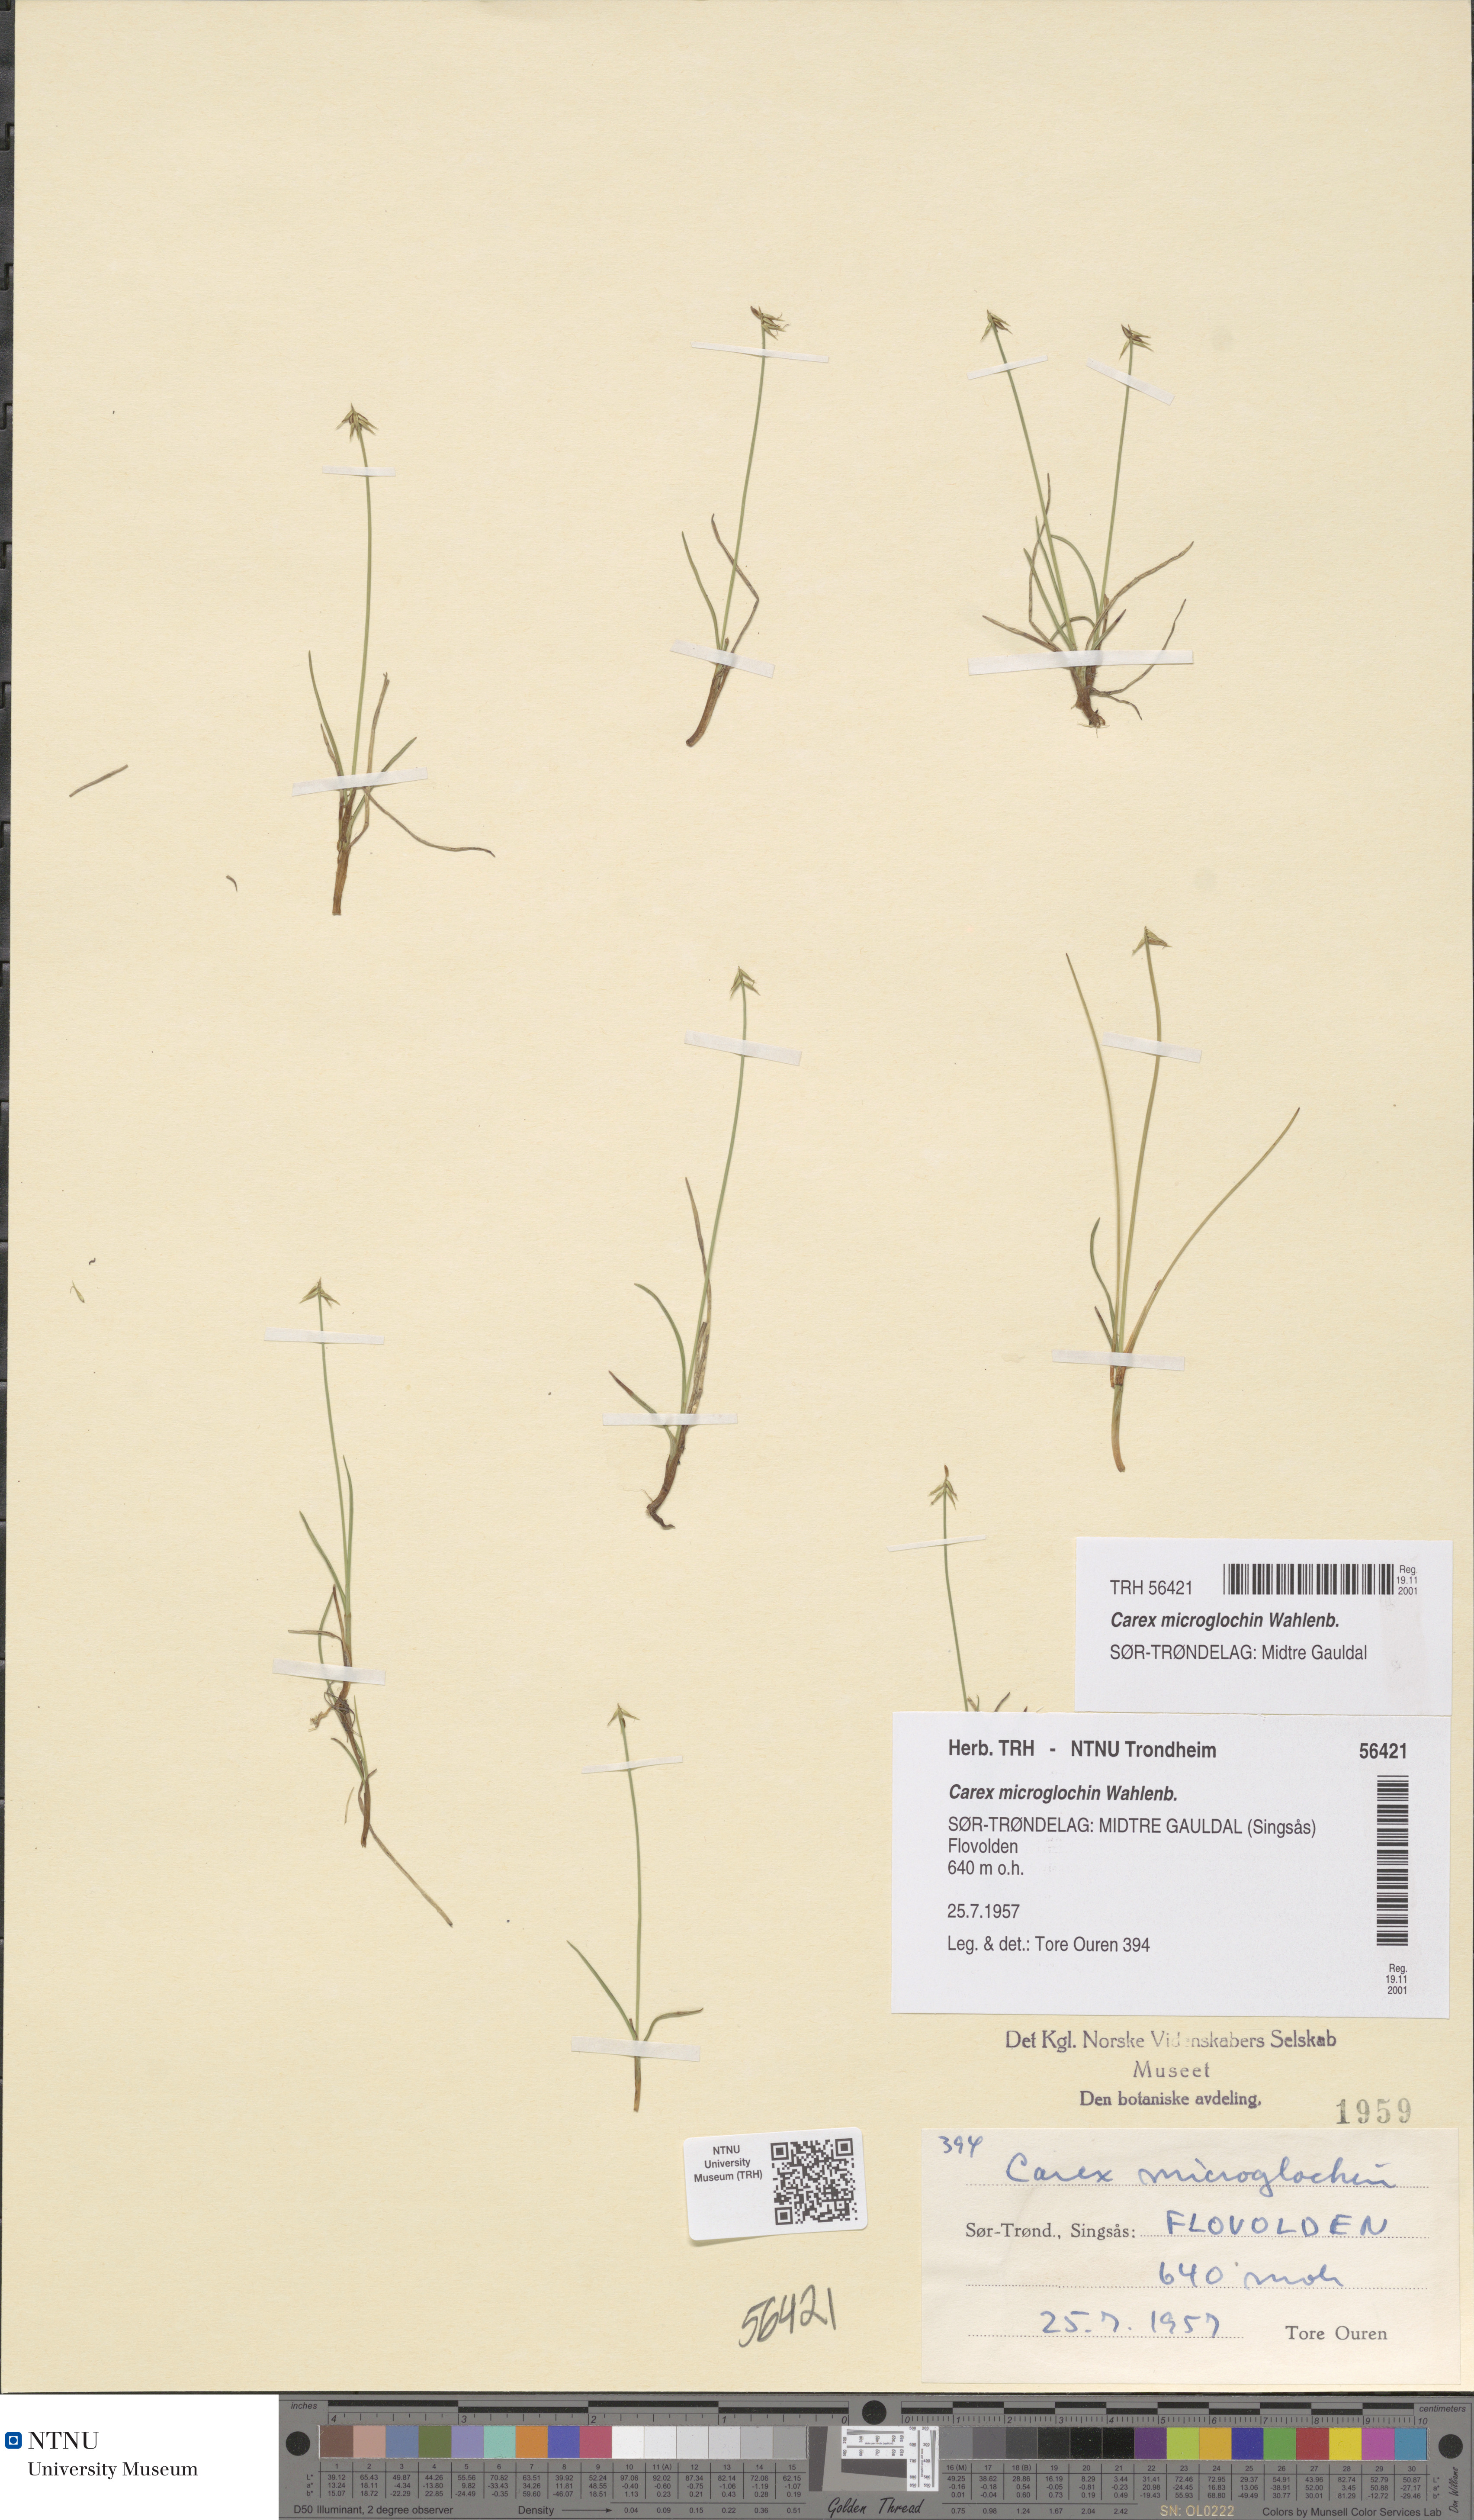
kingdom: Plantae
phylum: Tracheophyta
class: Liliopsida
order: Poales
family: Cyperaceae
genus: Carex
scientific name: Carex microglochin
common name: Bristle sedge
